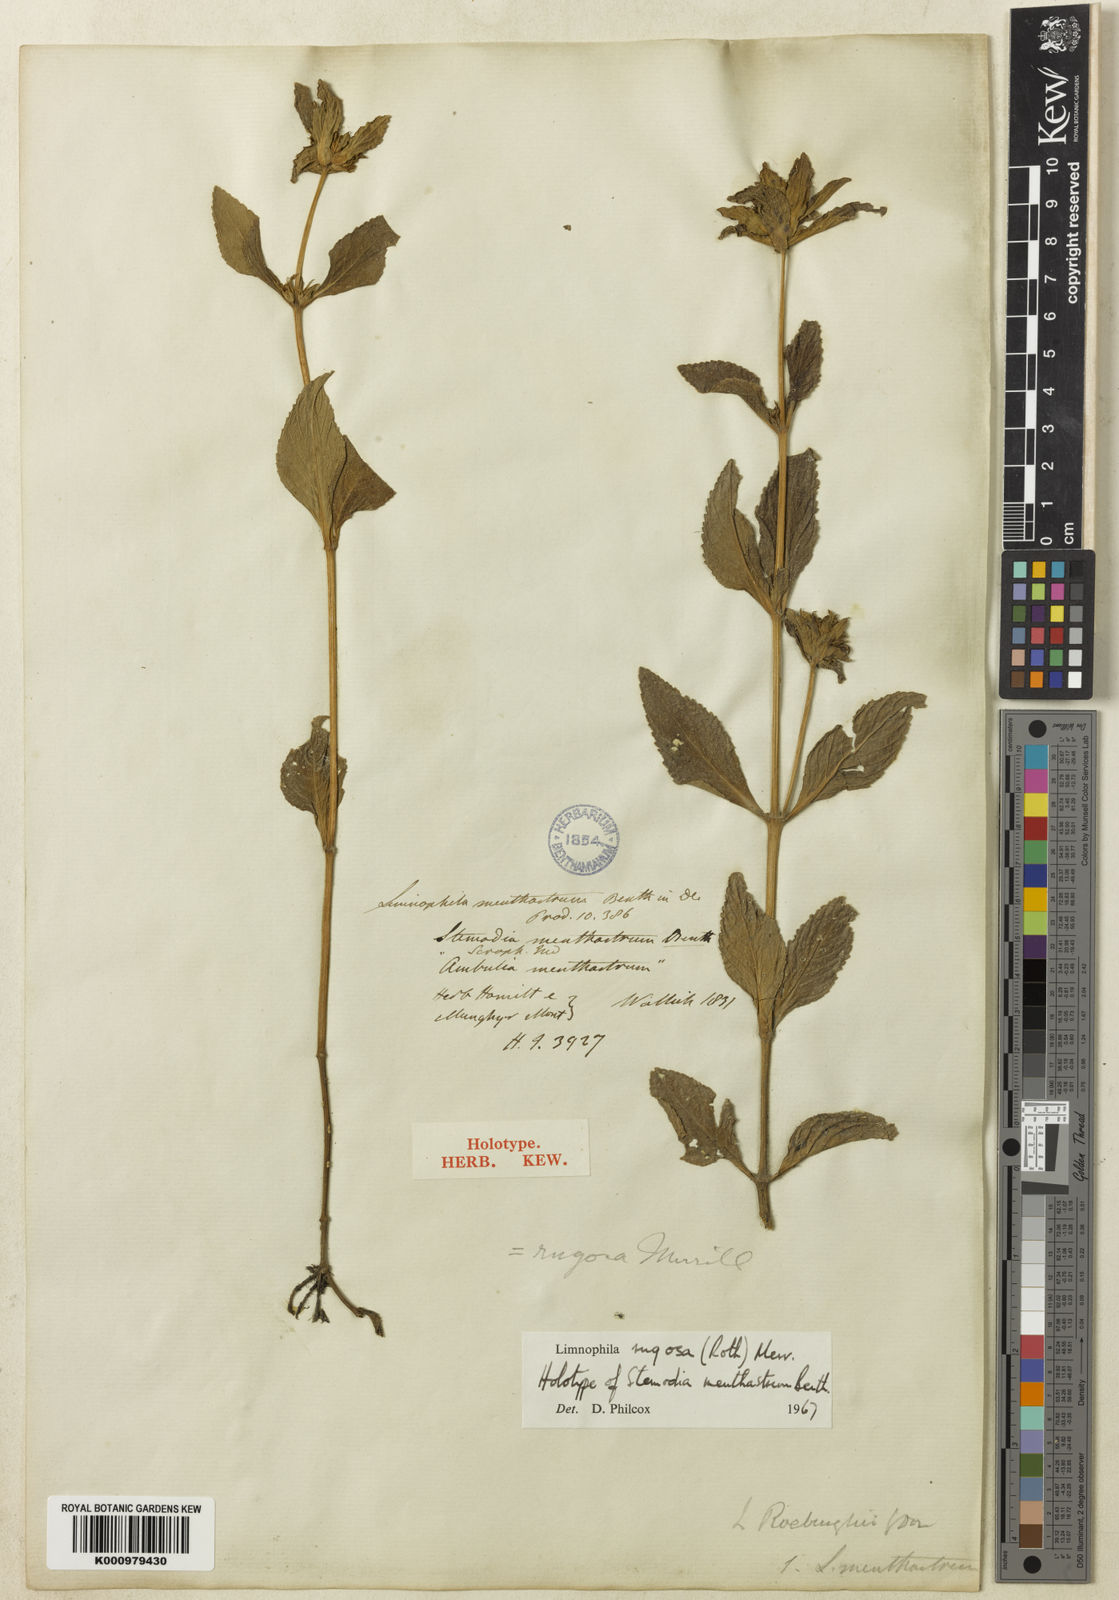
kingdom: Plantae
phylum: Tracheophyta
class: Magnoliopsida
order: Lamiales
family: Plantaginaceae
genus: Limnophila
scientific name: Limnophila rugosa
